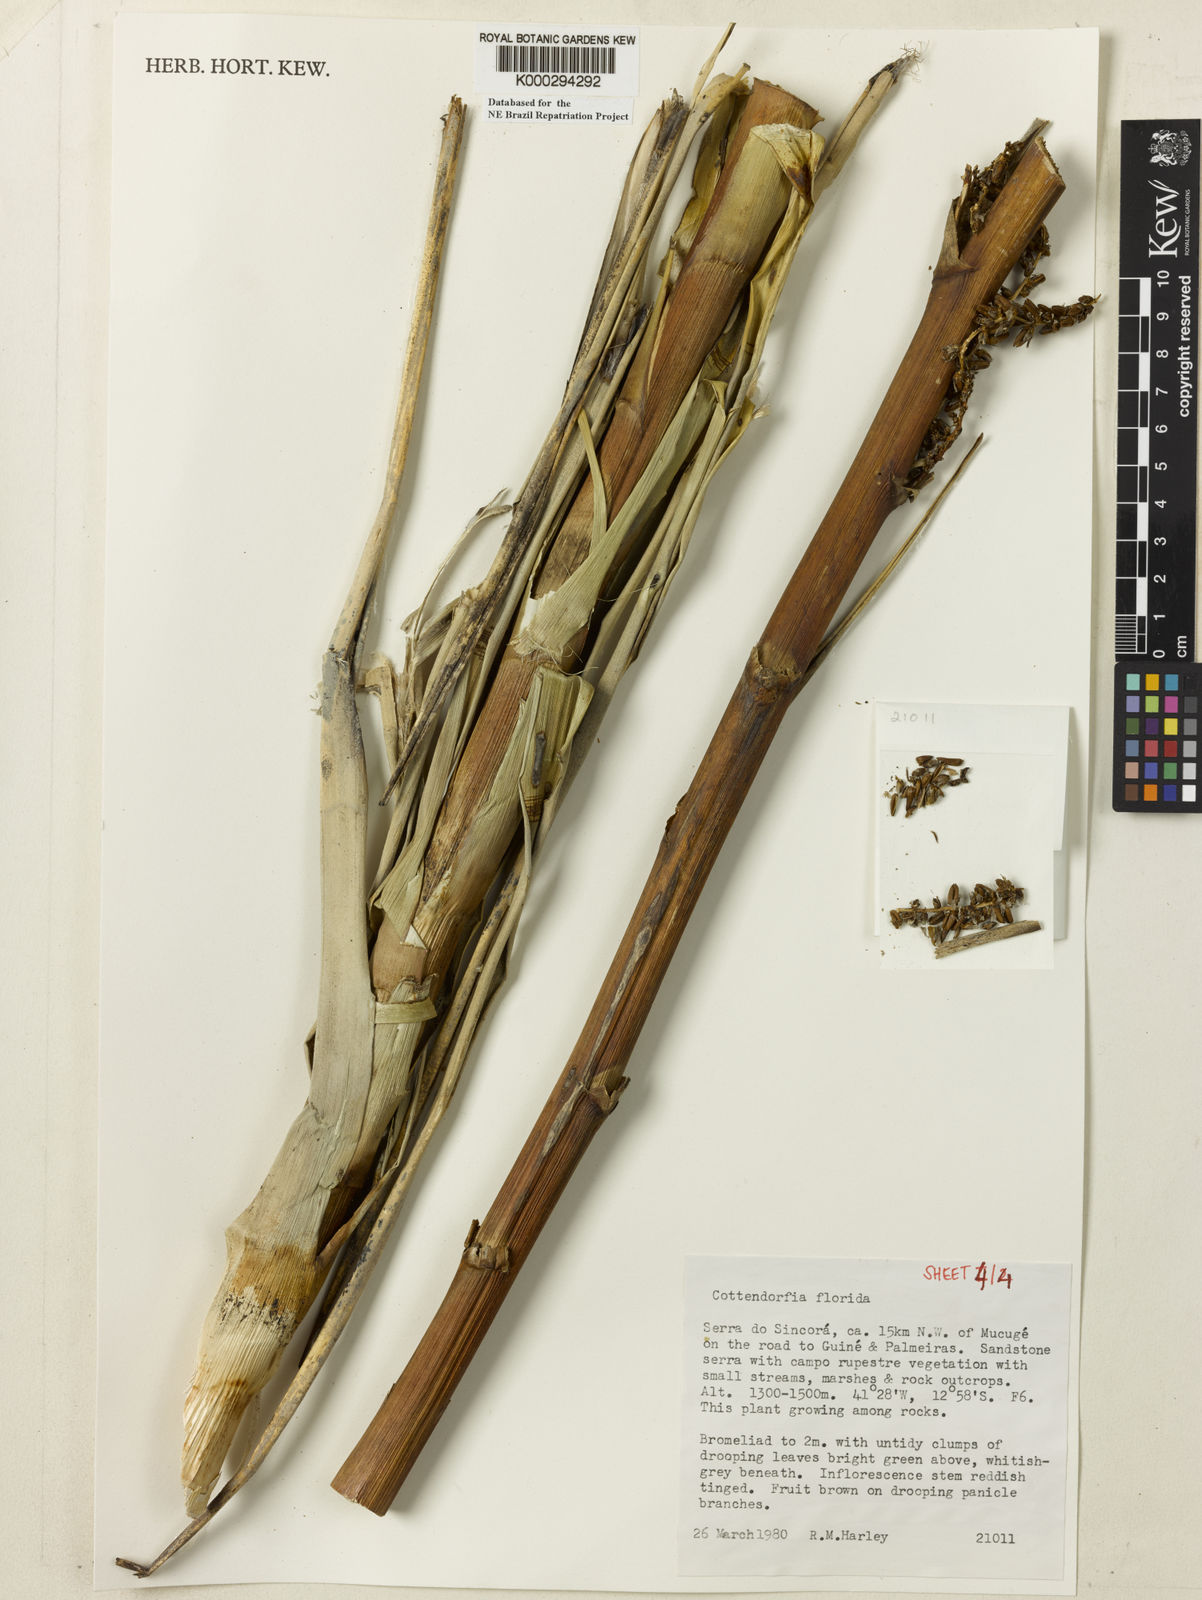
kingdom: Plantae
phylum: Tracheophyta
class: Liliopsida
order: Poales
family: Bromeliaceae
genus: Cottendorfia
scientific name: Cottendorfia florida
